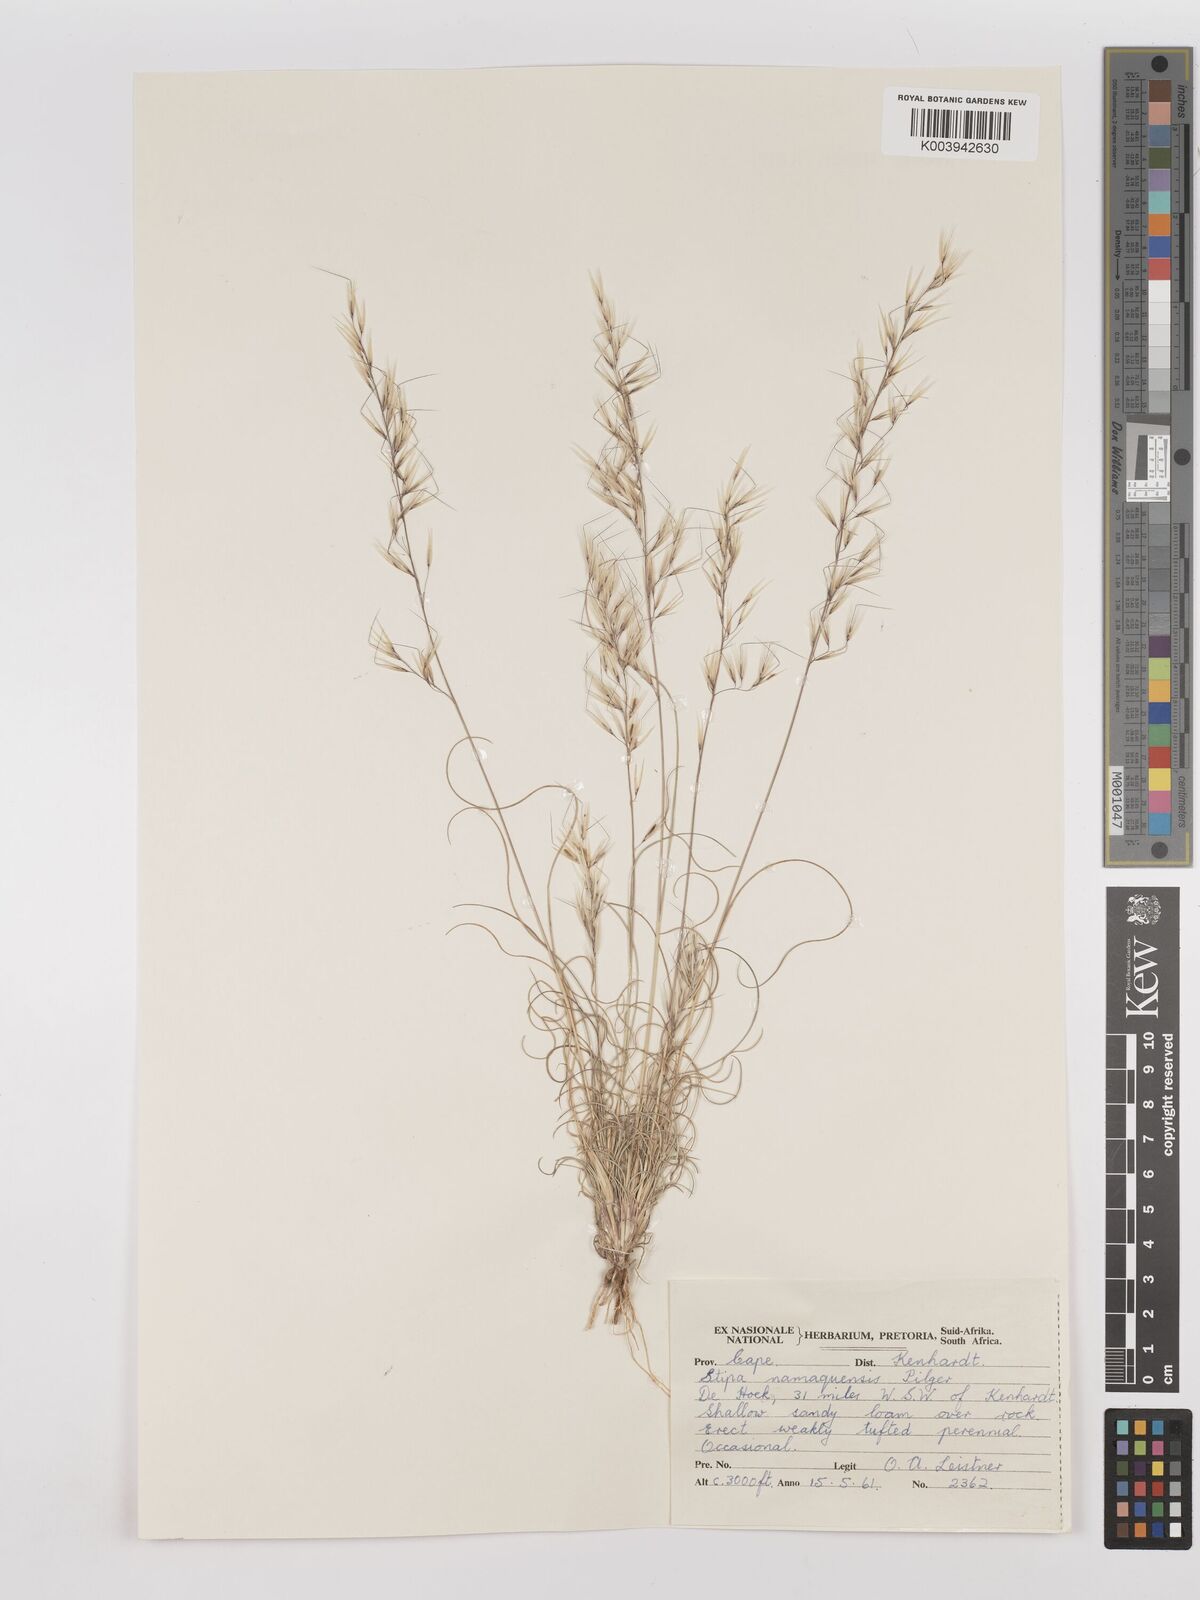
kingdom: Plantae
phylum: Tracheophyta
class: Liliopsida
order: Poales
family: Poaceae
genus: Stipagrostis
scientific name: Stipagrostis anomala
